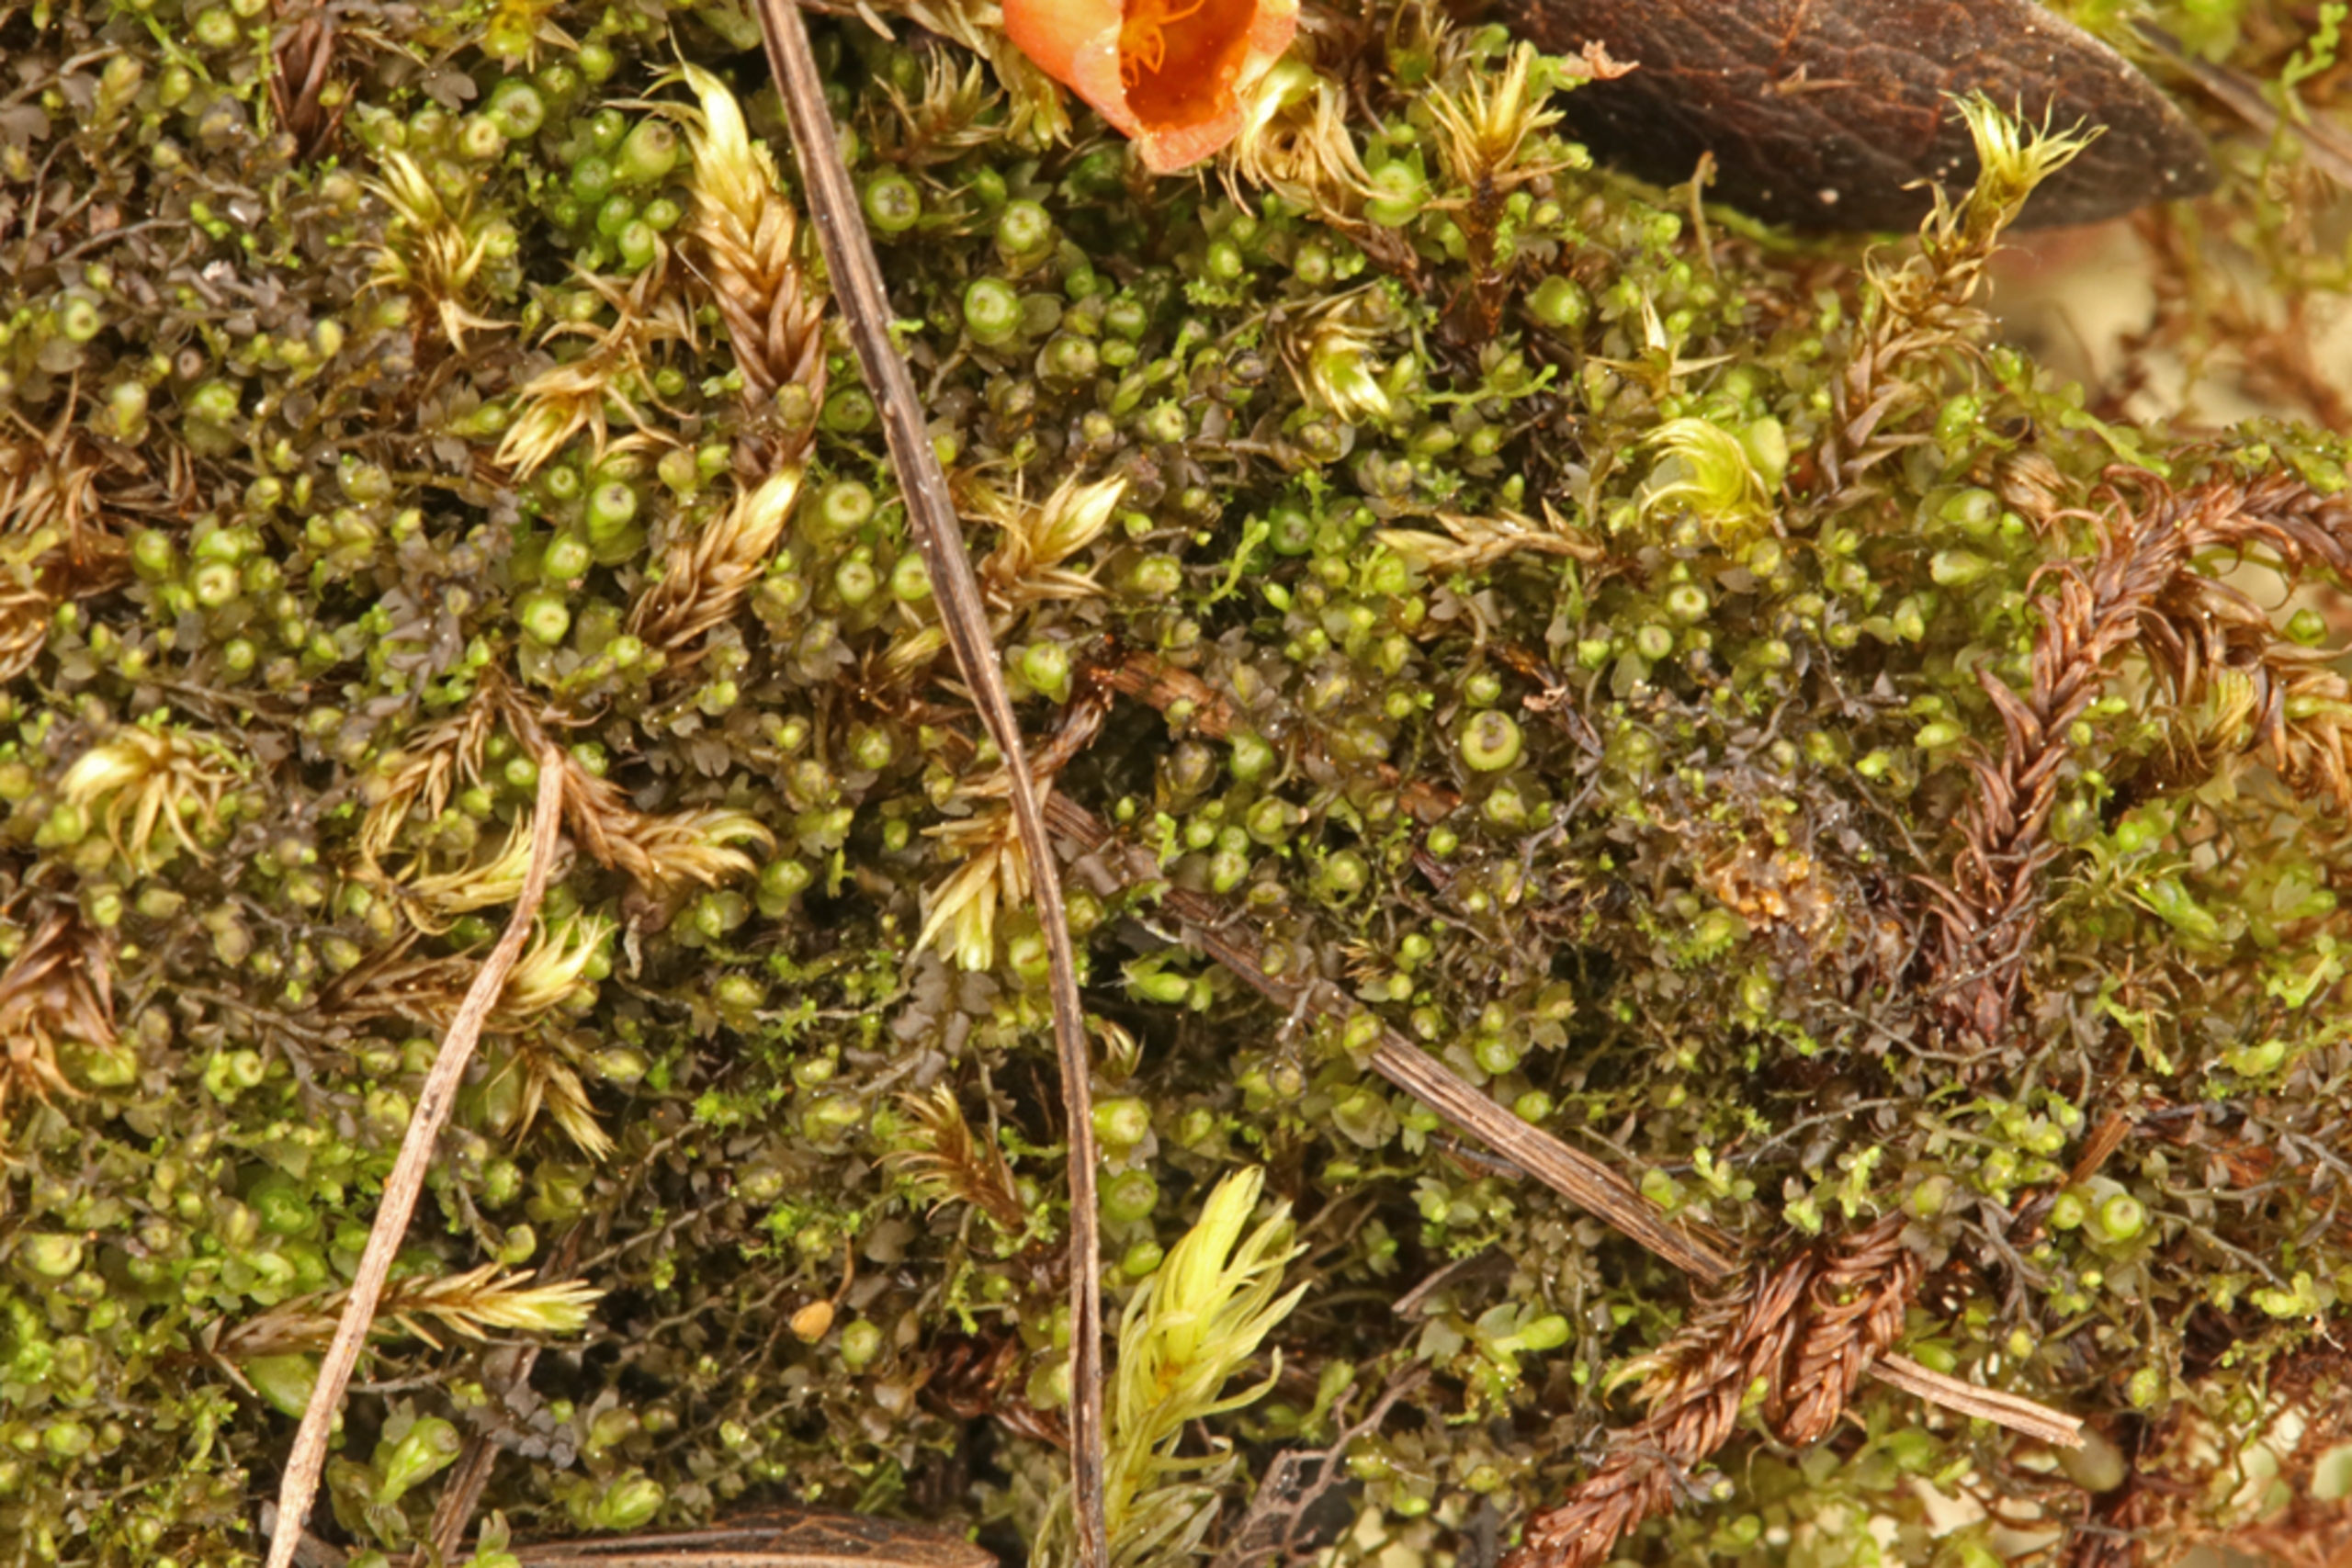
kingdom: Plantae
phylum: Marchantiophyta
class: Jungermanniopsida
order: Jungermanniales
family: Anastrophyllaceae
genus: Gymnocolea
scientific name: Gymnocolea inflata
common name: Opblæst blæremos
